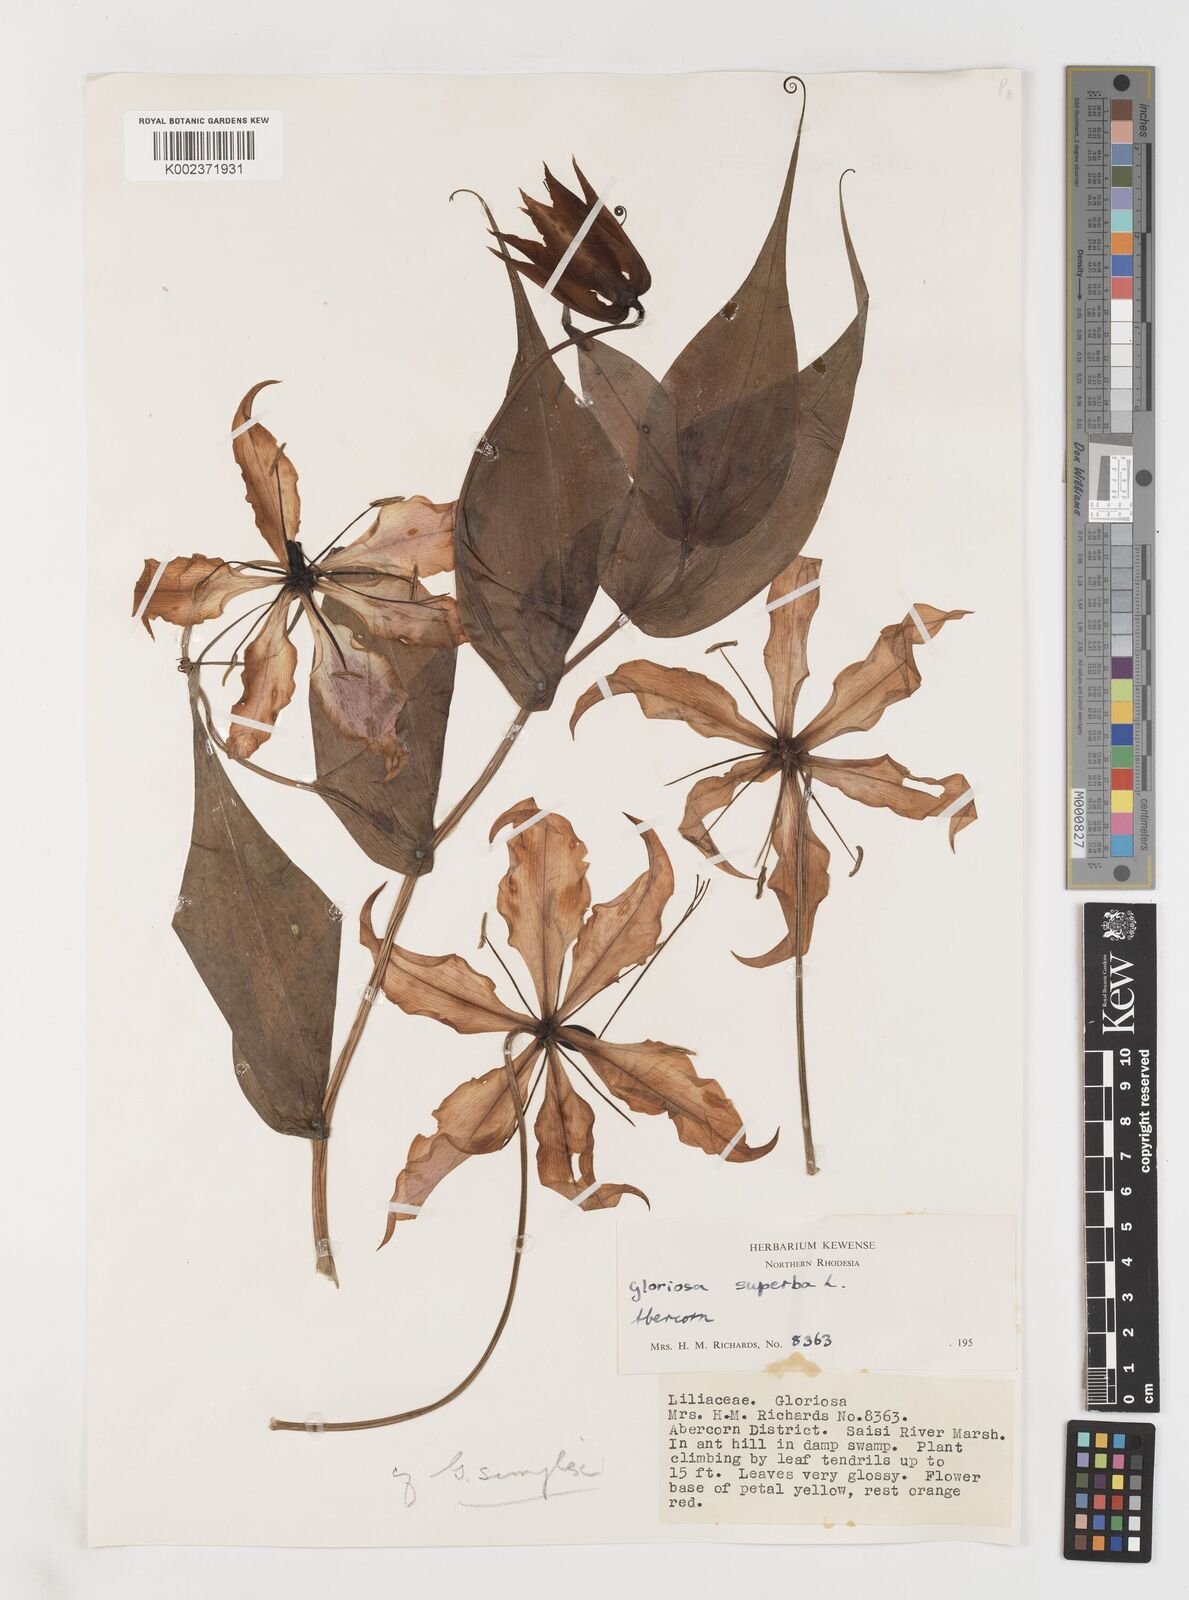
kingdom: Plantae
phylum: Tracheophyta
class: Liliopsida
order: Liliales
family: Colchicaceae
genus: Gloriosa
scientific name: Gloriosa simplex
